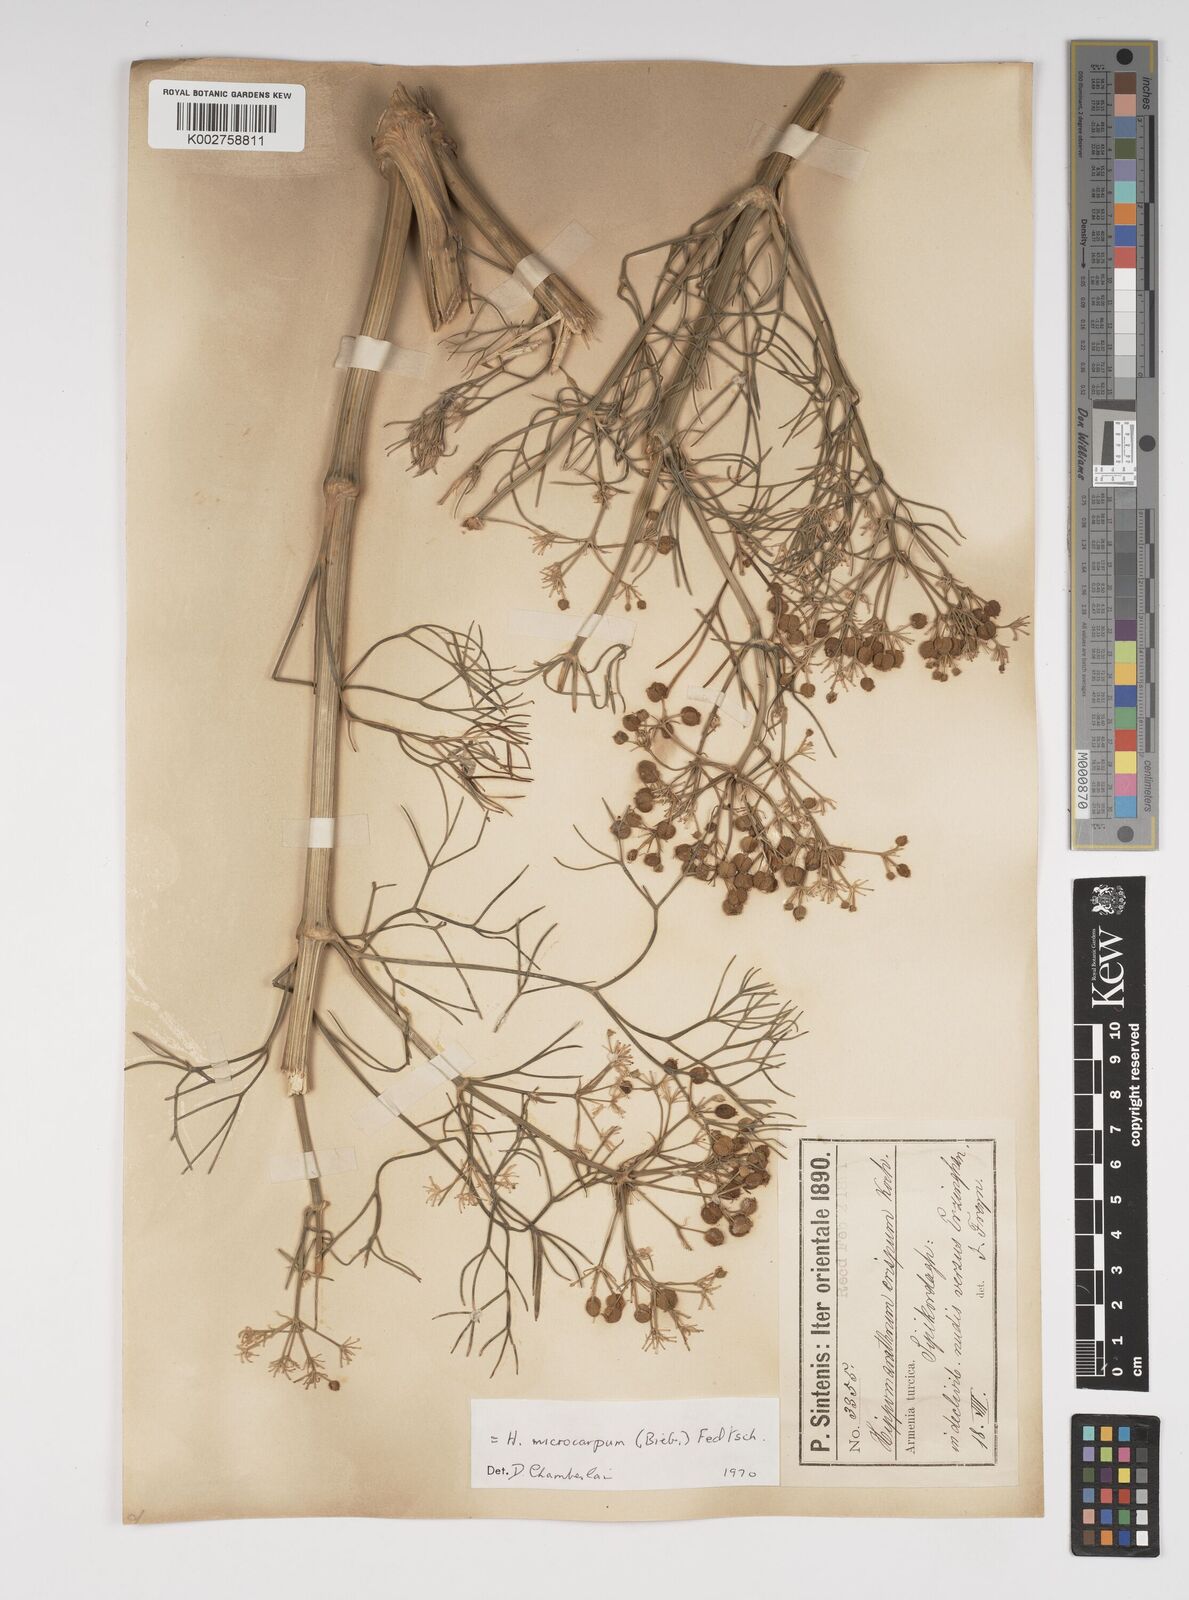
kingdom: Plantae
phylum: Tracheophyta
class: Magnoliopsida
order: Apiales
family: Apiaceae
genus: Bilacunaria
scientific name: Bilacunaria microcarpa
